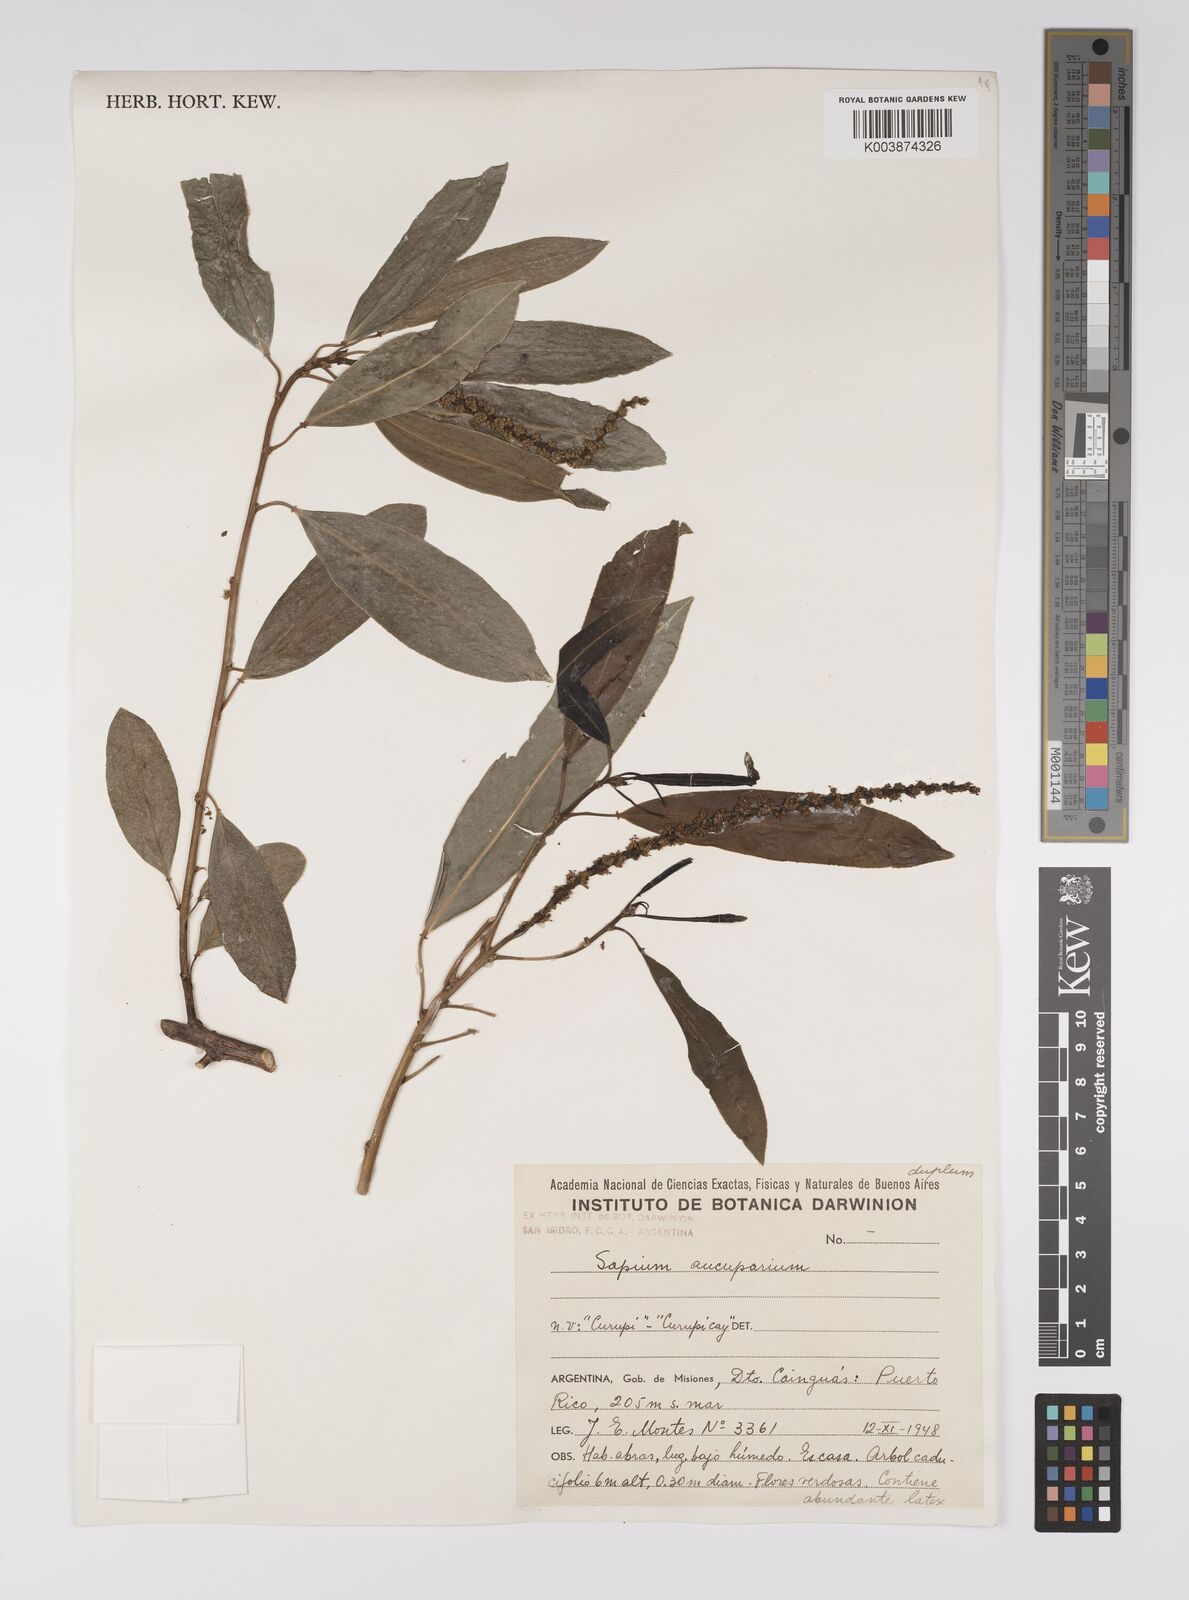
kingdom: Plantae
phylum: Tracheophyta
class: Magnoliopsida
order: Malpighiales
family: Euphorbiaceae
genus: Sapium
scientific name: Sapium
